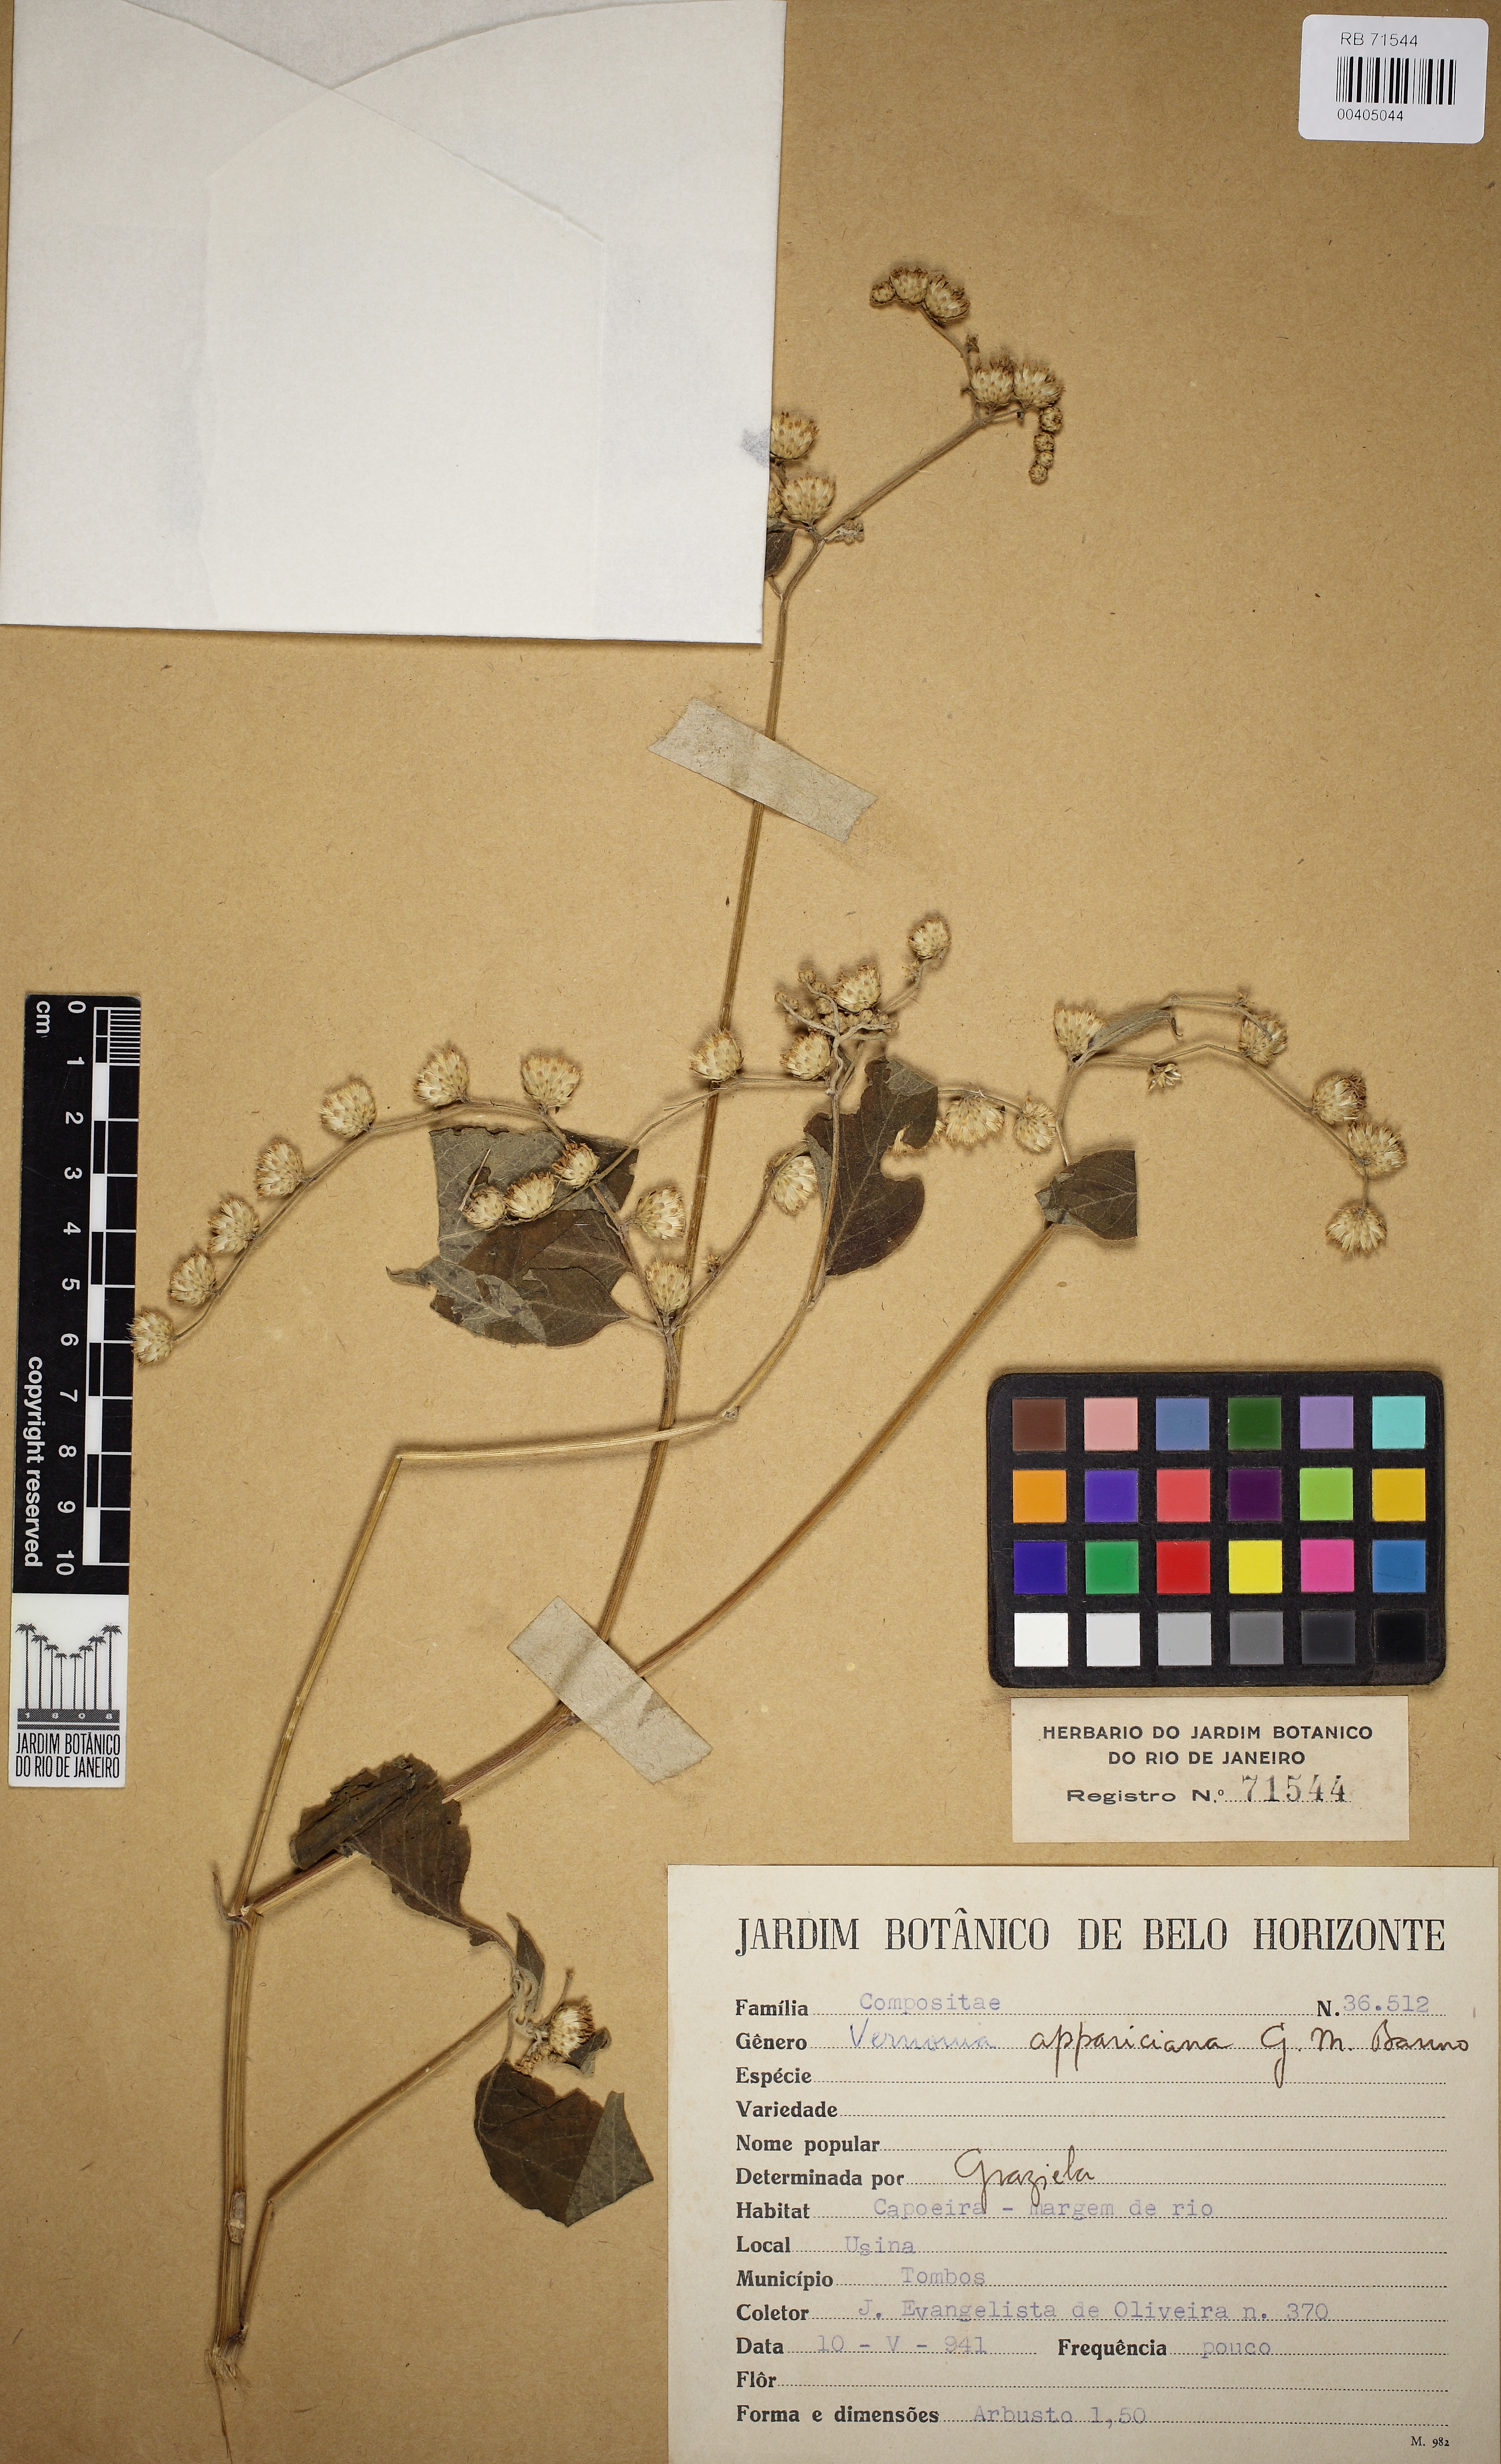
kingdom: Plantae
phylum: Tracheophyta
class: Magnoliopsida
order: Asterales
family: Asteraceae
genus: Vernonia
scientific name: Vernonia appariciana
